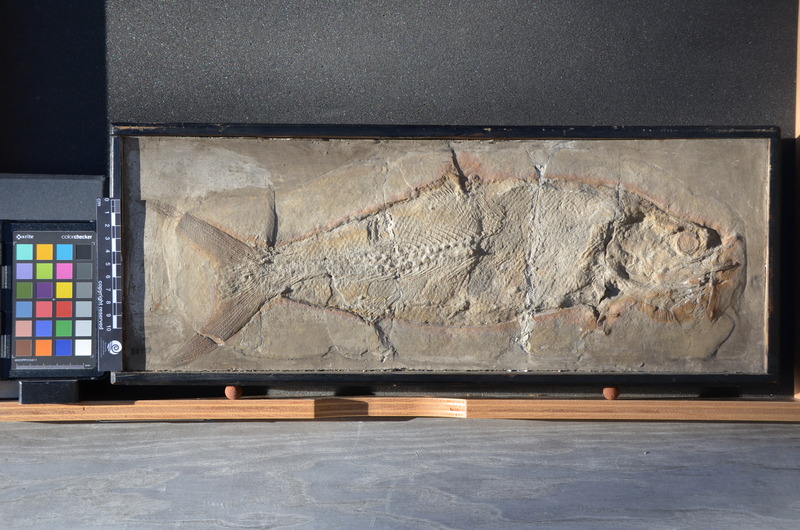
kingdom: Animalia
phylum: Chordata
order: Amiiformes
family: Caturidae
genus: Caturus
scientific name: Caturus furcatus
